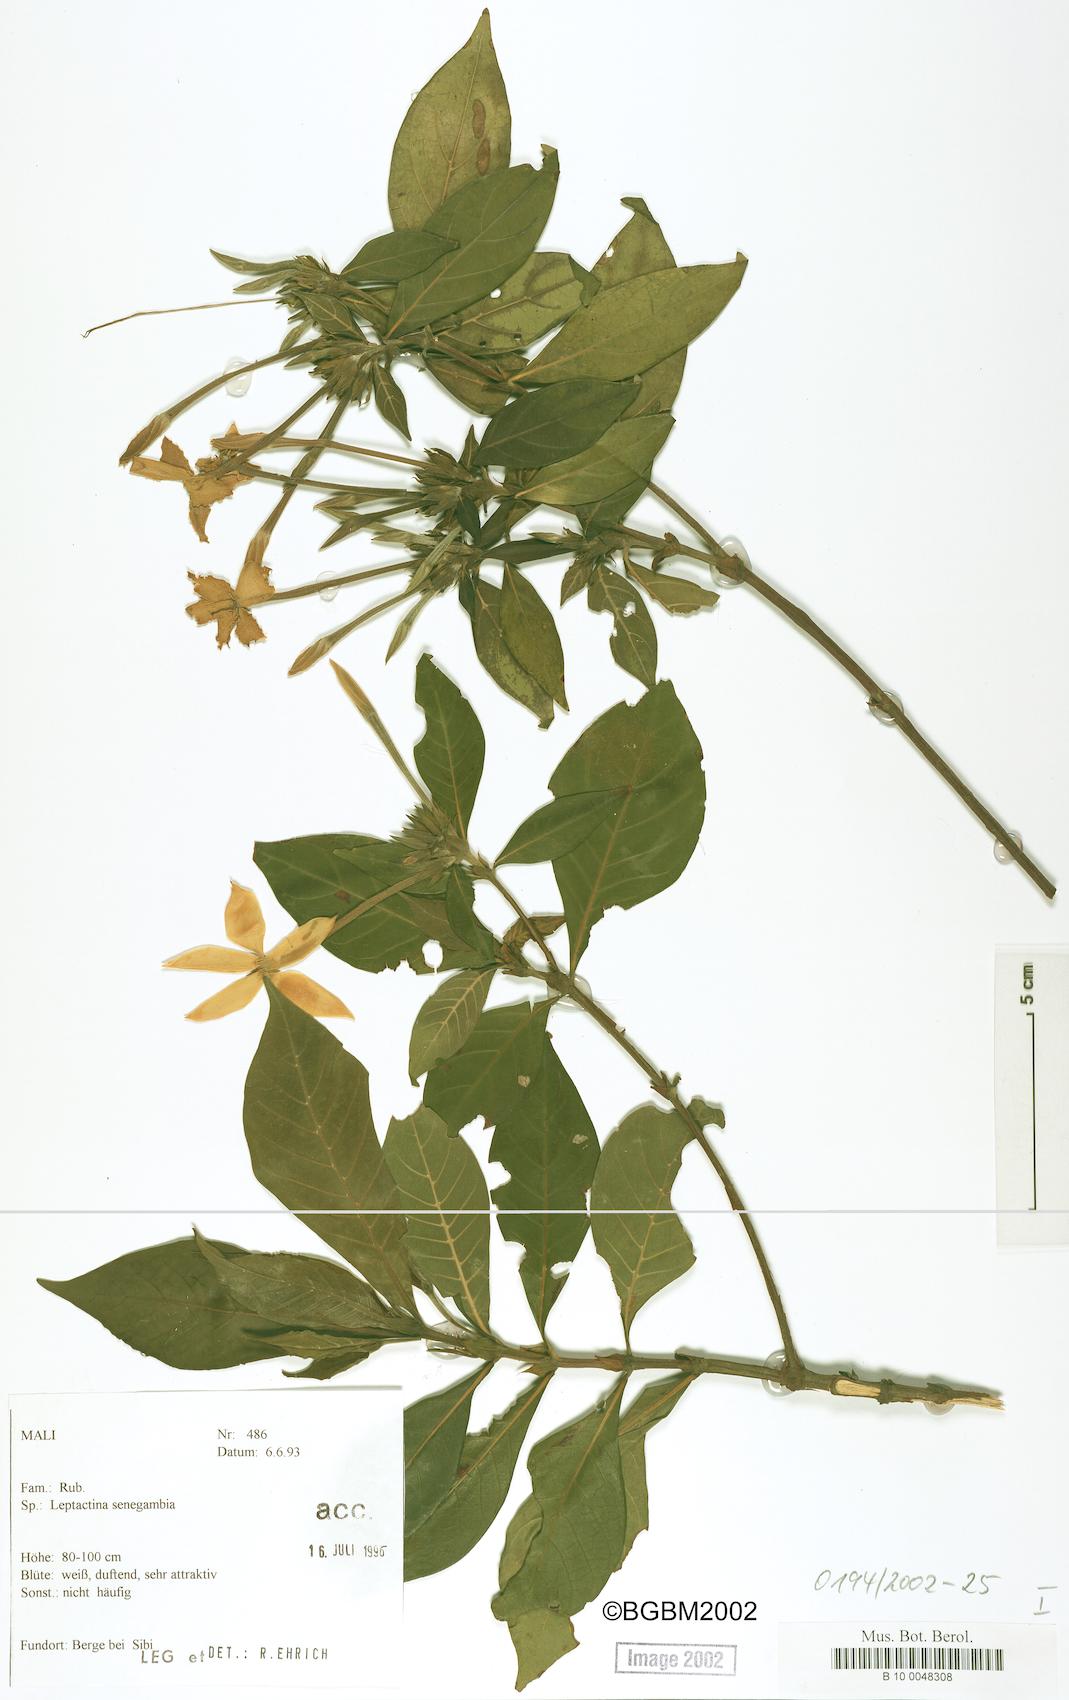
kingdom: Plantae
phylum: Tracheophyta
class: Magnoliopsida
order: Gentianales
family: Rubiaceae
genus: Leptactina
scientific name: Leptactina senegambica
